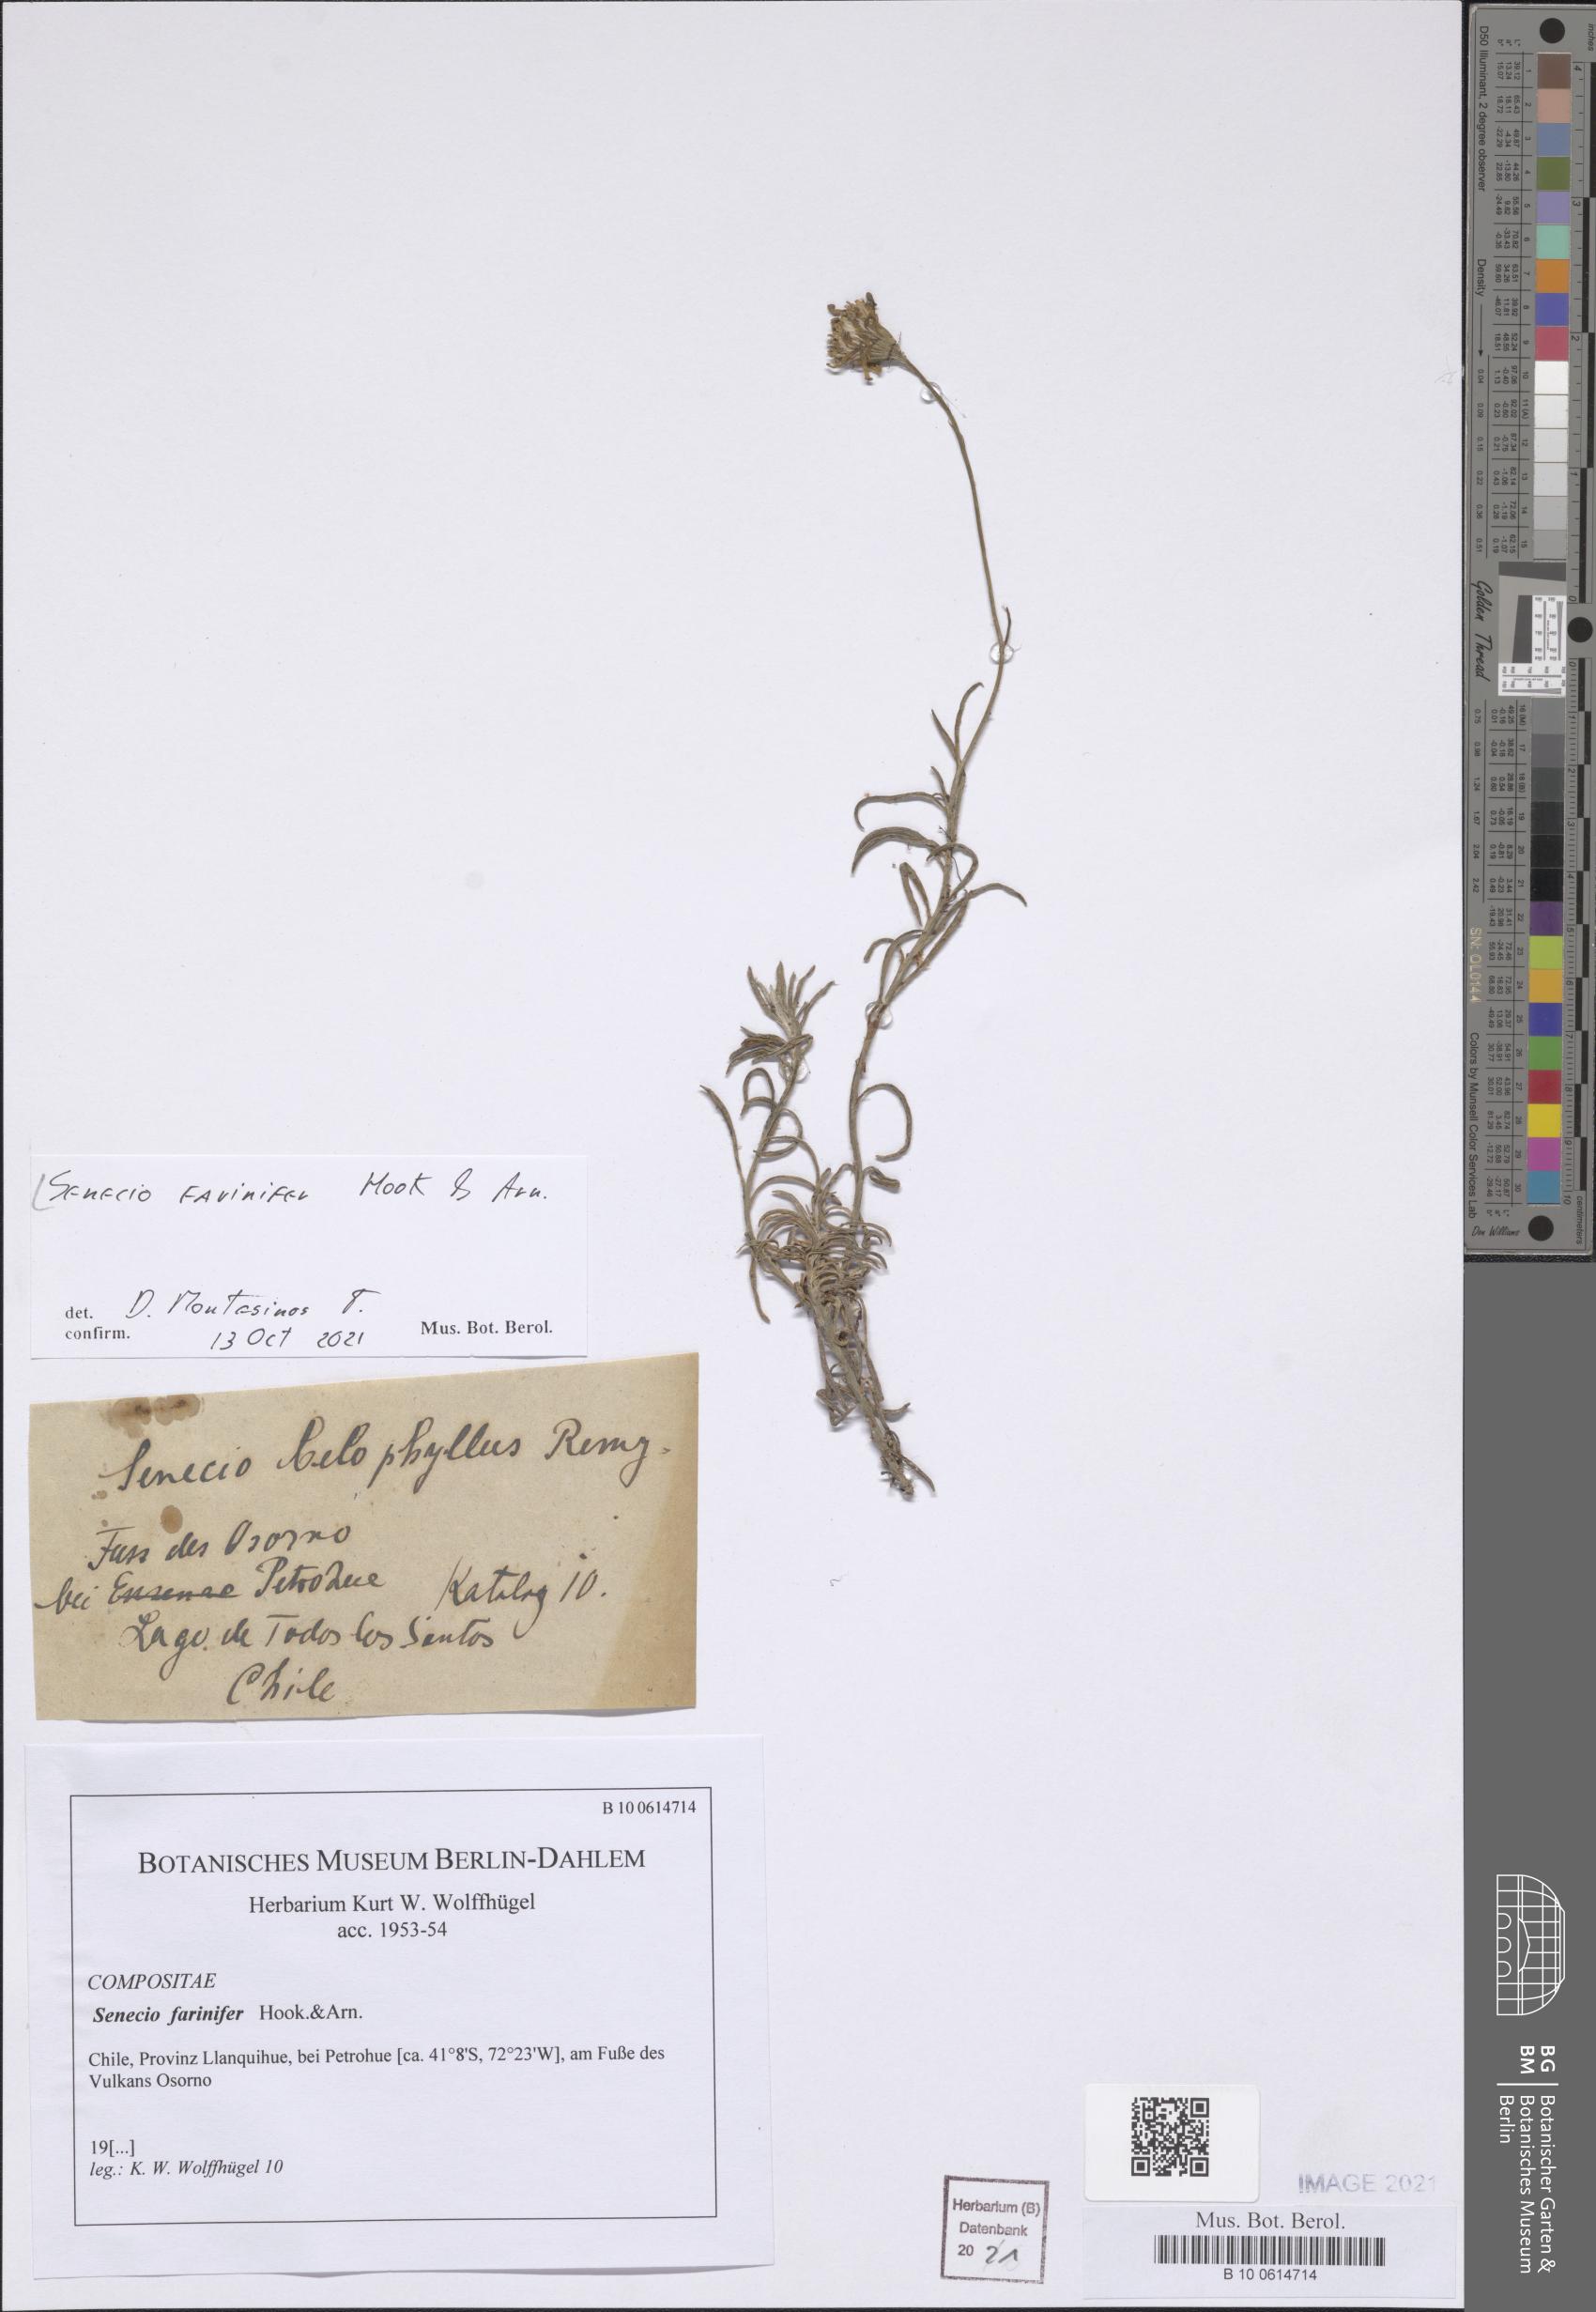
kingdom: Plantae
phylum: Tracheophyta
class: Magnoliopsida
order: Asterales
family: Asteraceae
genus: Senecio
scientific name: Senecio farinifer
